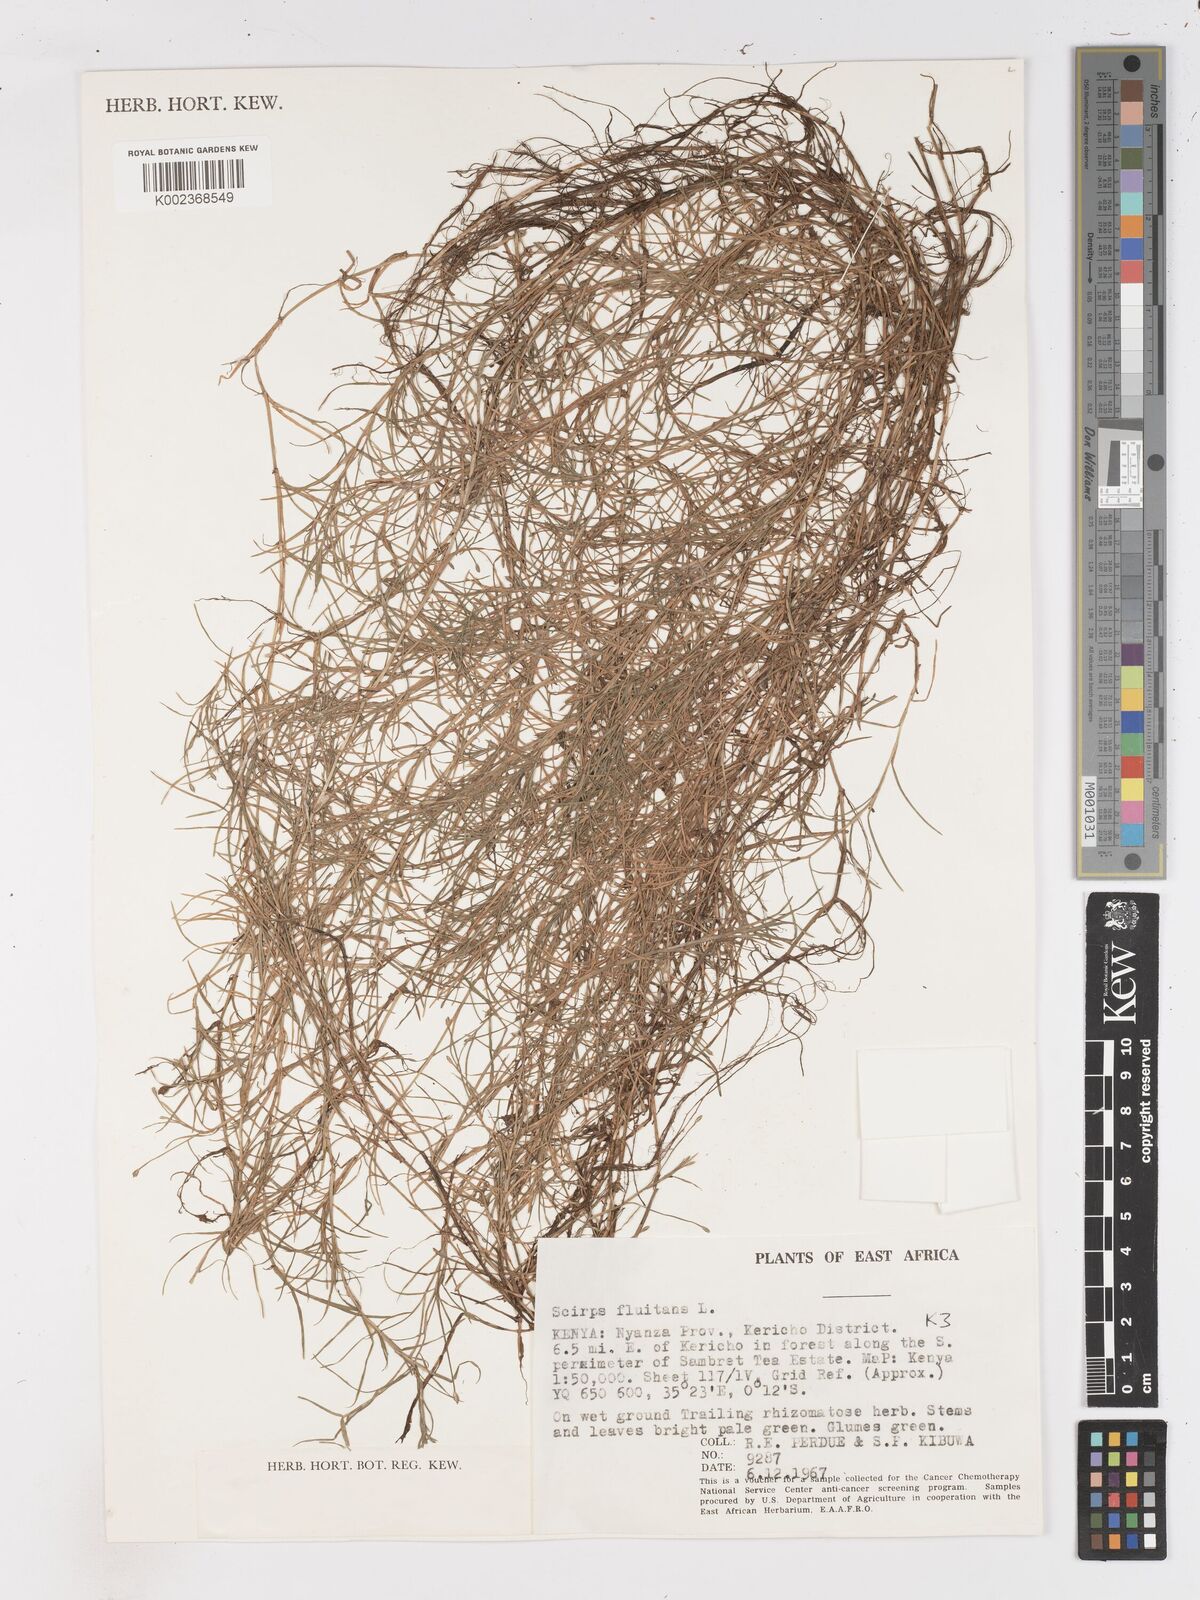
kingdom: Plantae
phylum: Tracheophyta
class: Liliopsida
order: Poales
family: Cyperaceae
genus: Isolepis
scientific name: Isolepis fluitans
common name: Floating club-rush
